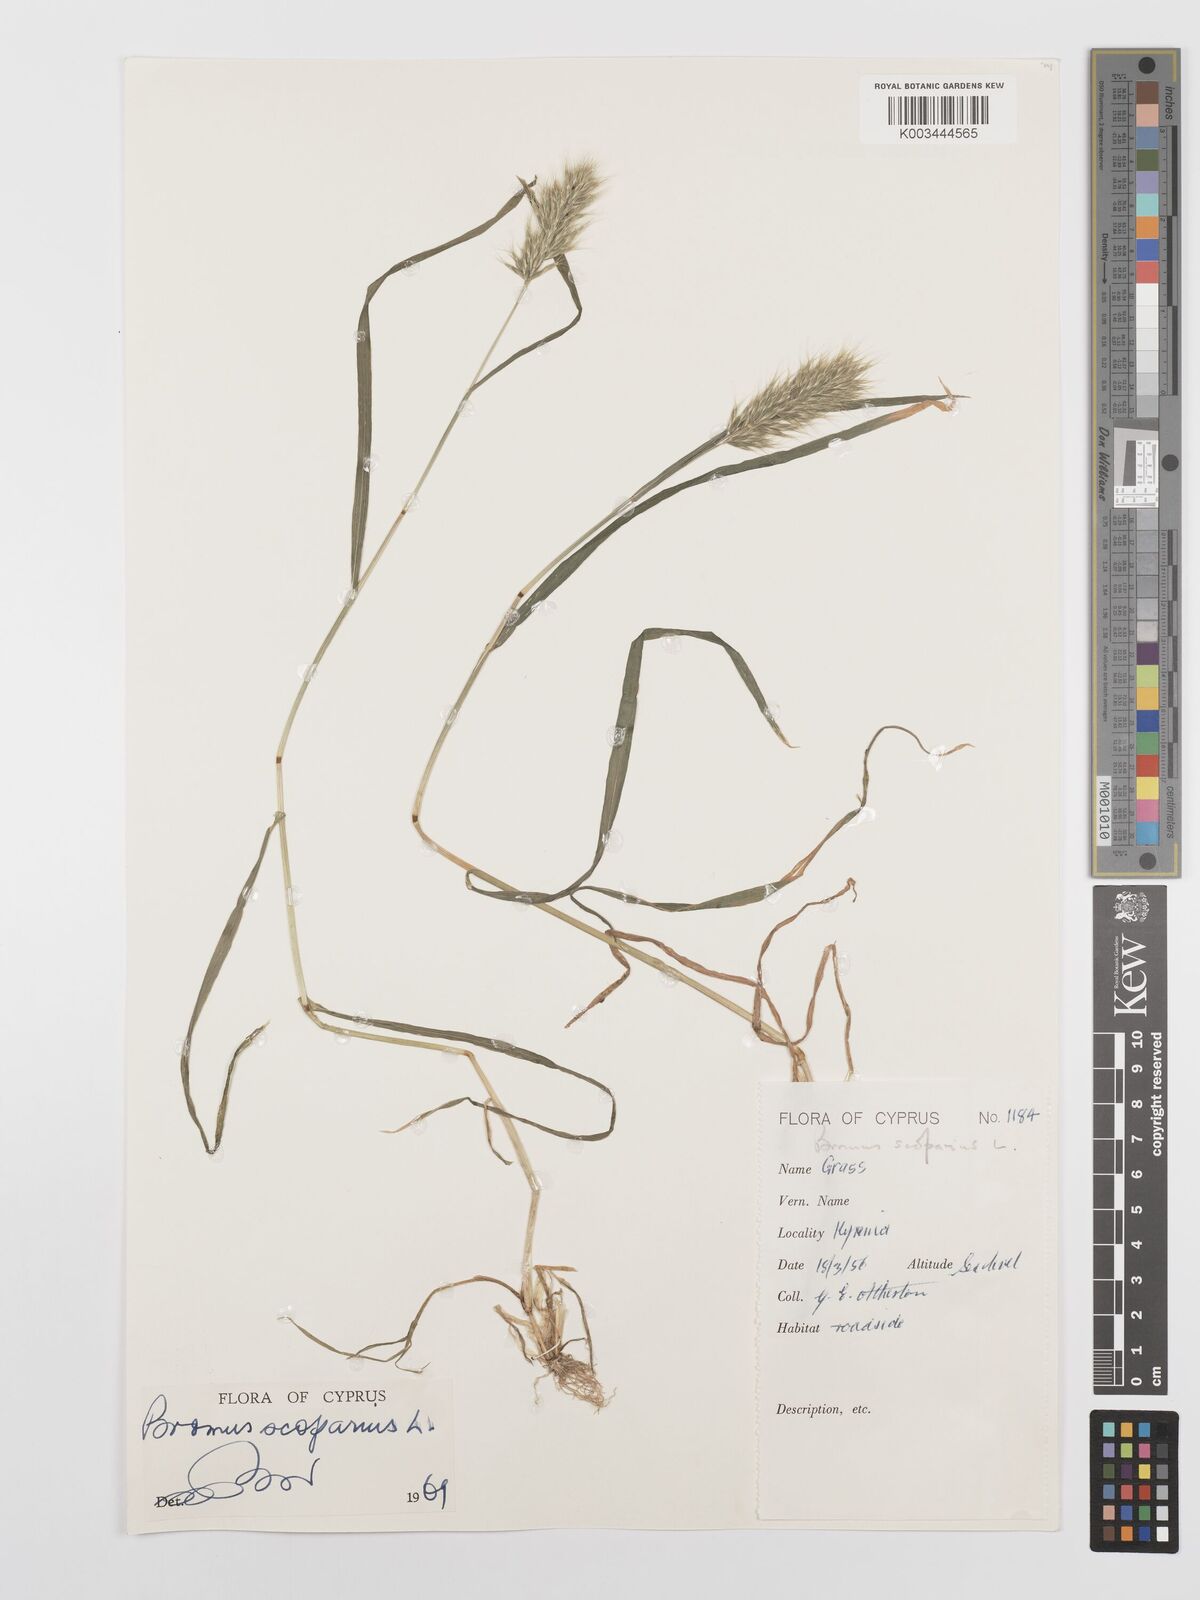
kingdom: Plantae
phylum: Tracheophyta
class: Liliopsida
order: Poales
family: Poaceae
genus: Bromus
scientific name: Bromus scoparius
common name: Broom brome
